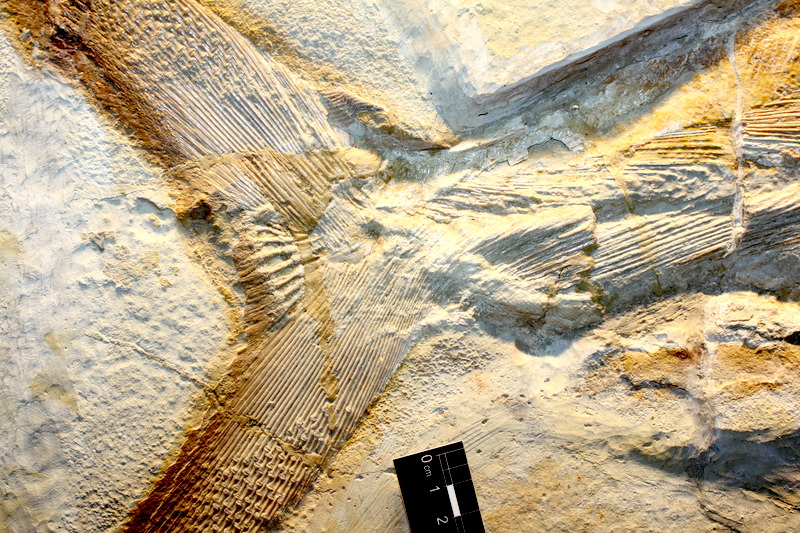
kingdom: Animalia
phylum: Chordata
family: Pachycormidae
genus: Hypsocormus
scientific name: Hypsocormus insignis
